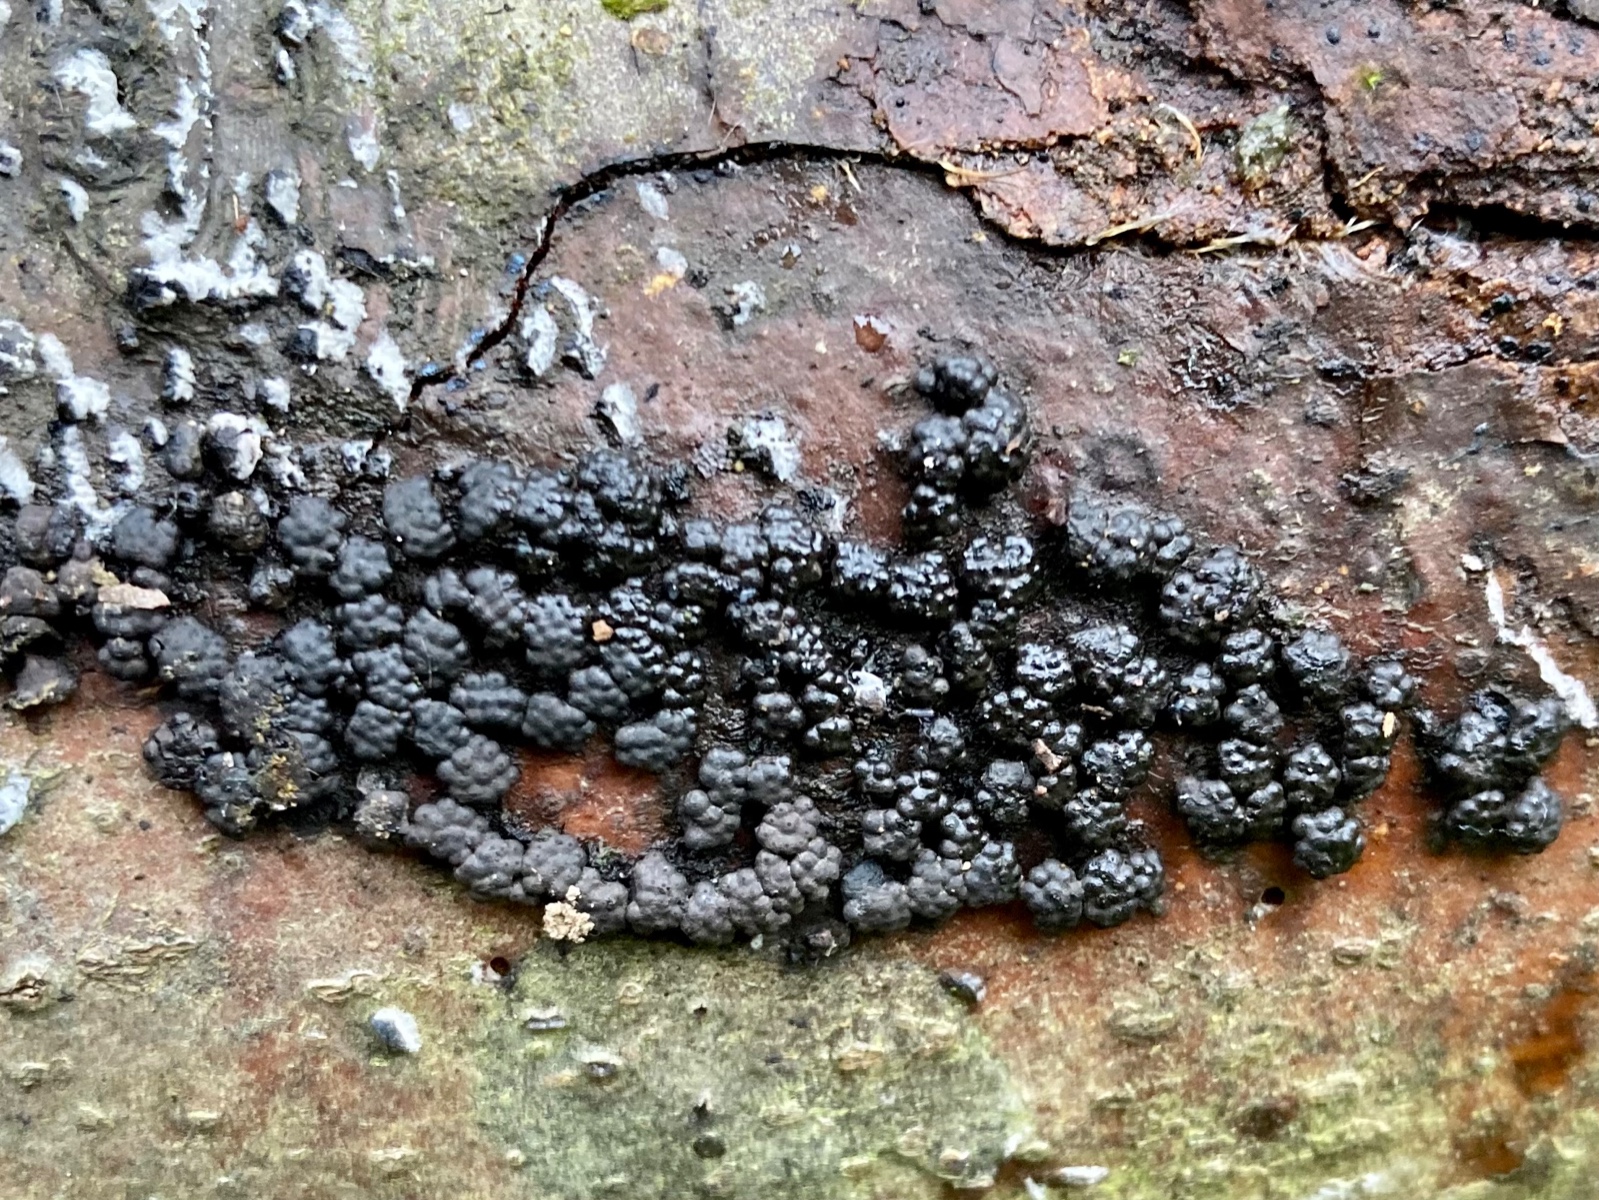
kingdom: Fungi
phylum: Ascomycota
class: Sordariomycetes
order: Xylariales
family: Hypoxylaceae
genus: Jackrogersella
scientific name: Jackrogersella cohaerens
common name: sammenflydende kulbær
